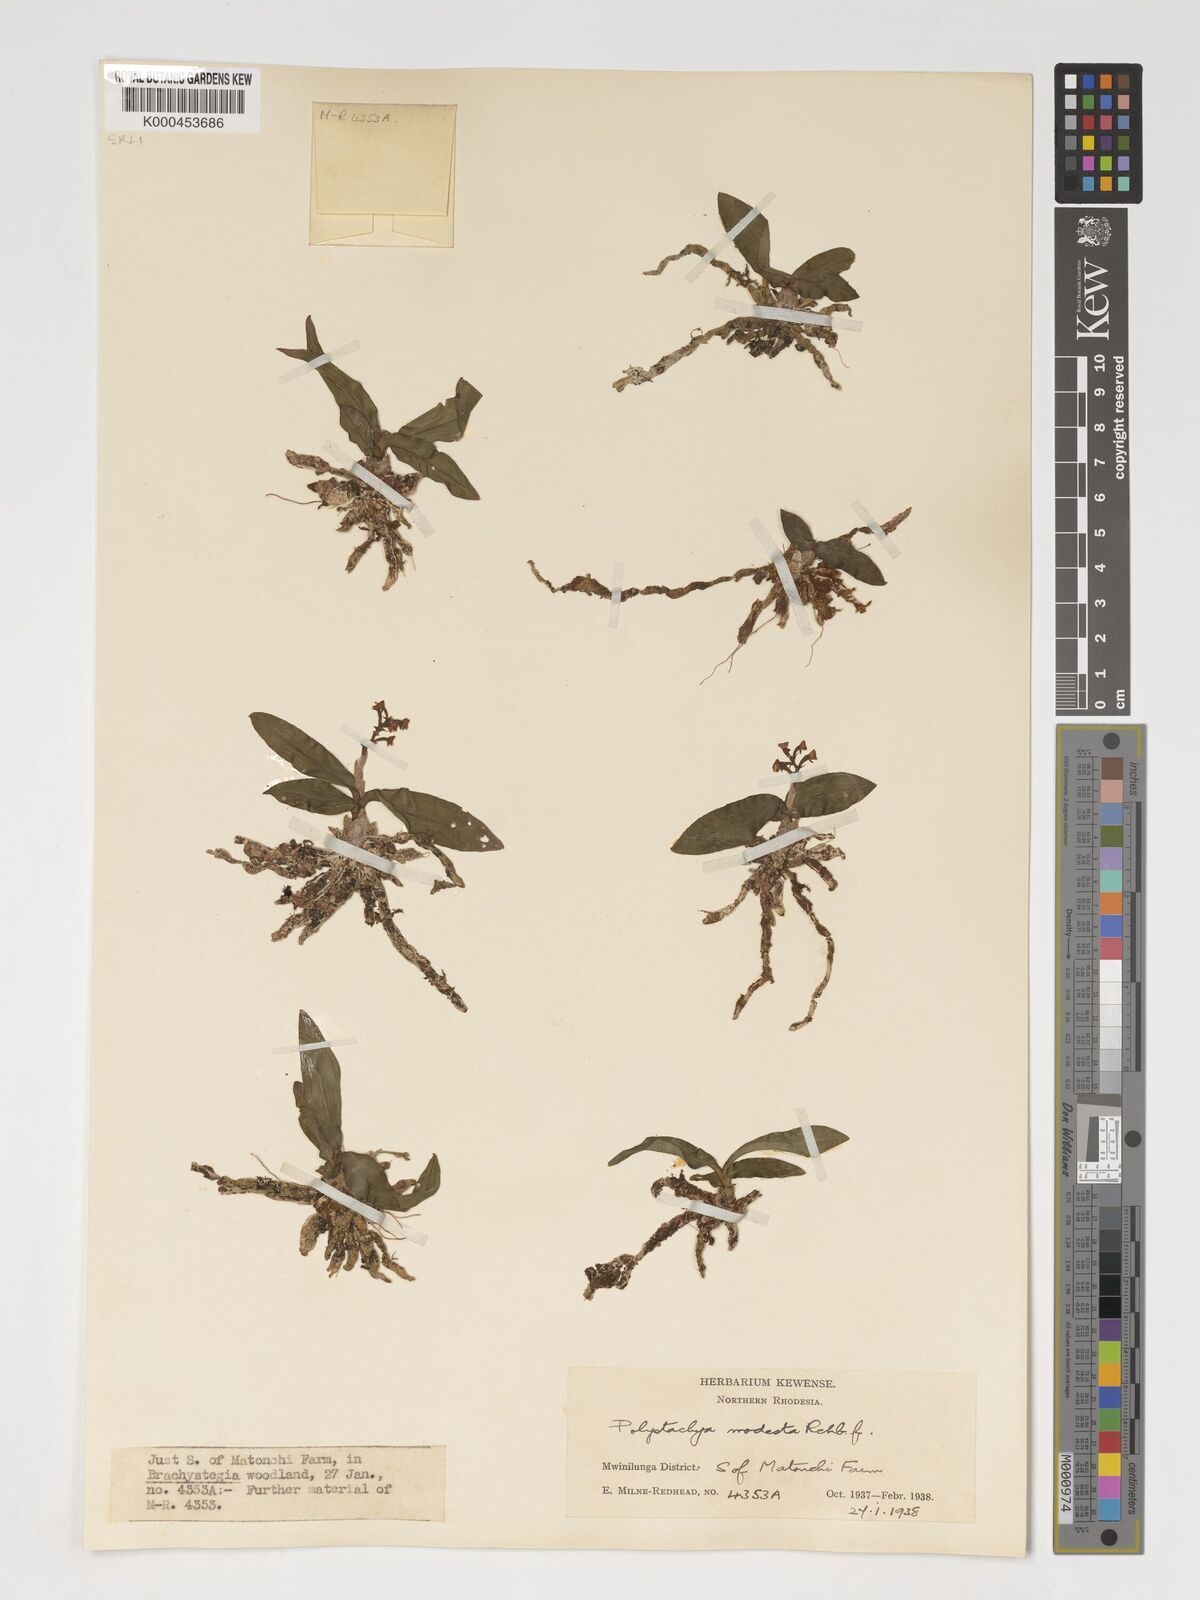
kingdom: Plantae
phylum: Tracheophyta
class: Liliopsida
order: Asparagales
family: Orchidaceae
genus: Polystachya
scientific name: Polystachya modesta
